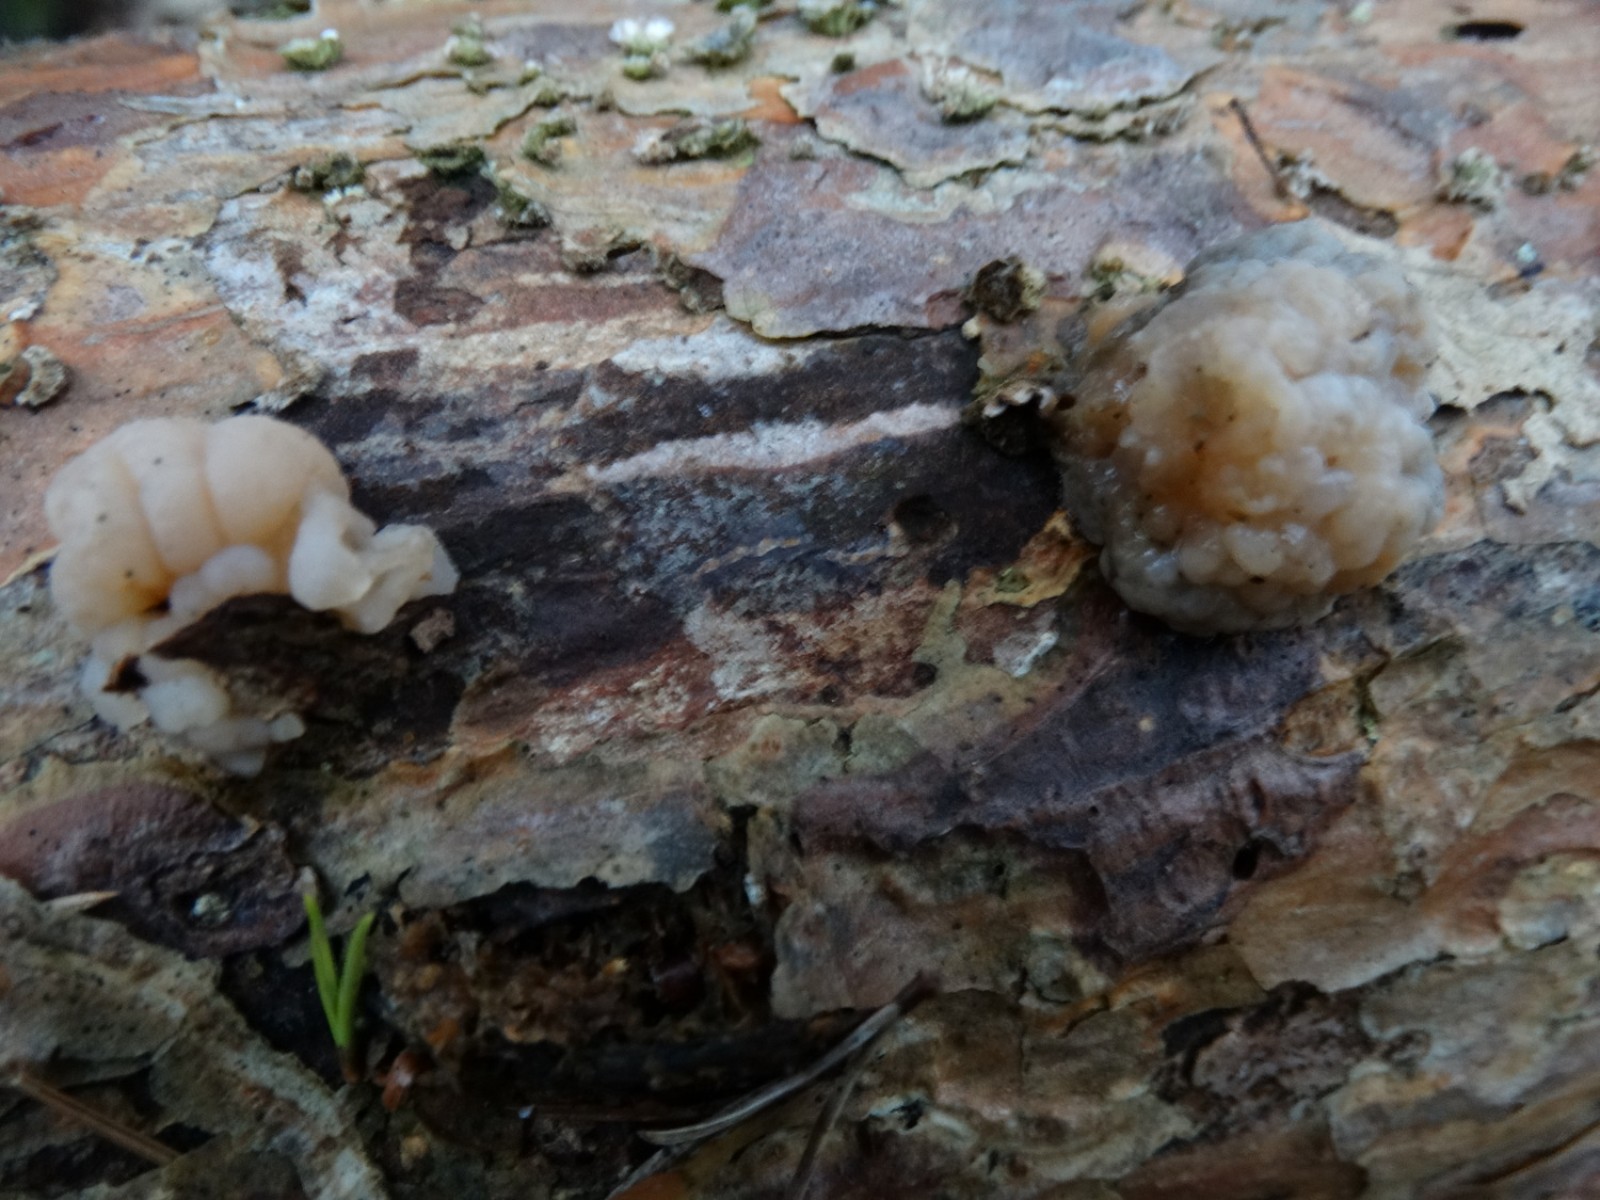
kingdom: Fungi
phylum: Basidiomycota
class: Tremellomycetes
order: Tremellales
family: Naemateliaceae
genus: Naematelia
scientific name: Naematelia encephala
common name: fyrre-bævresvamp
